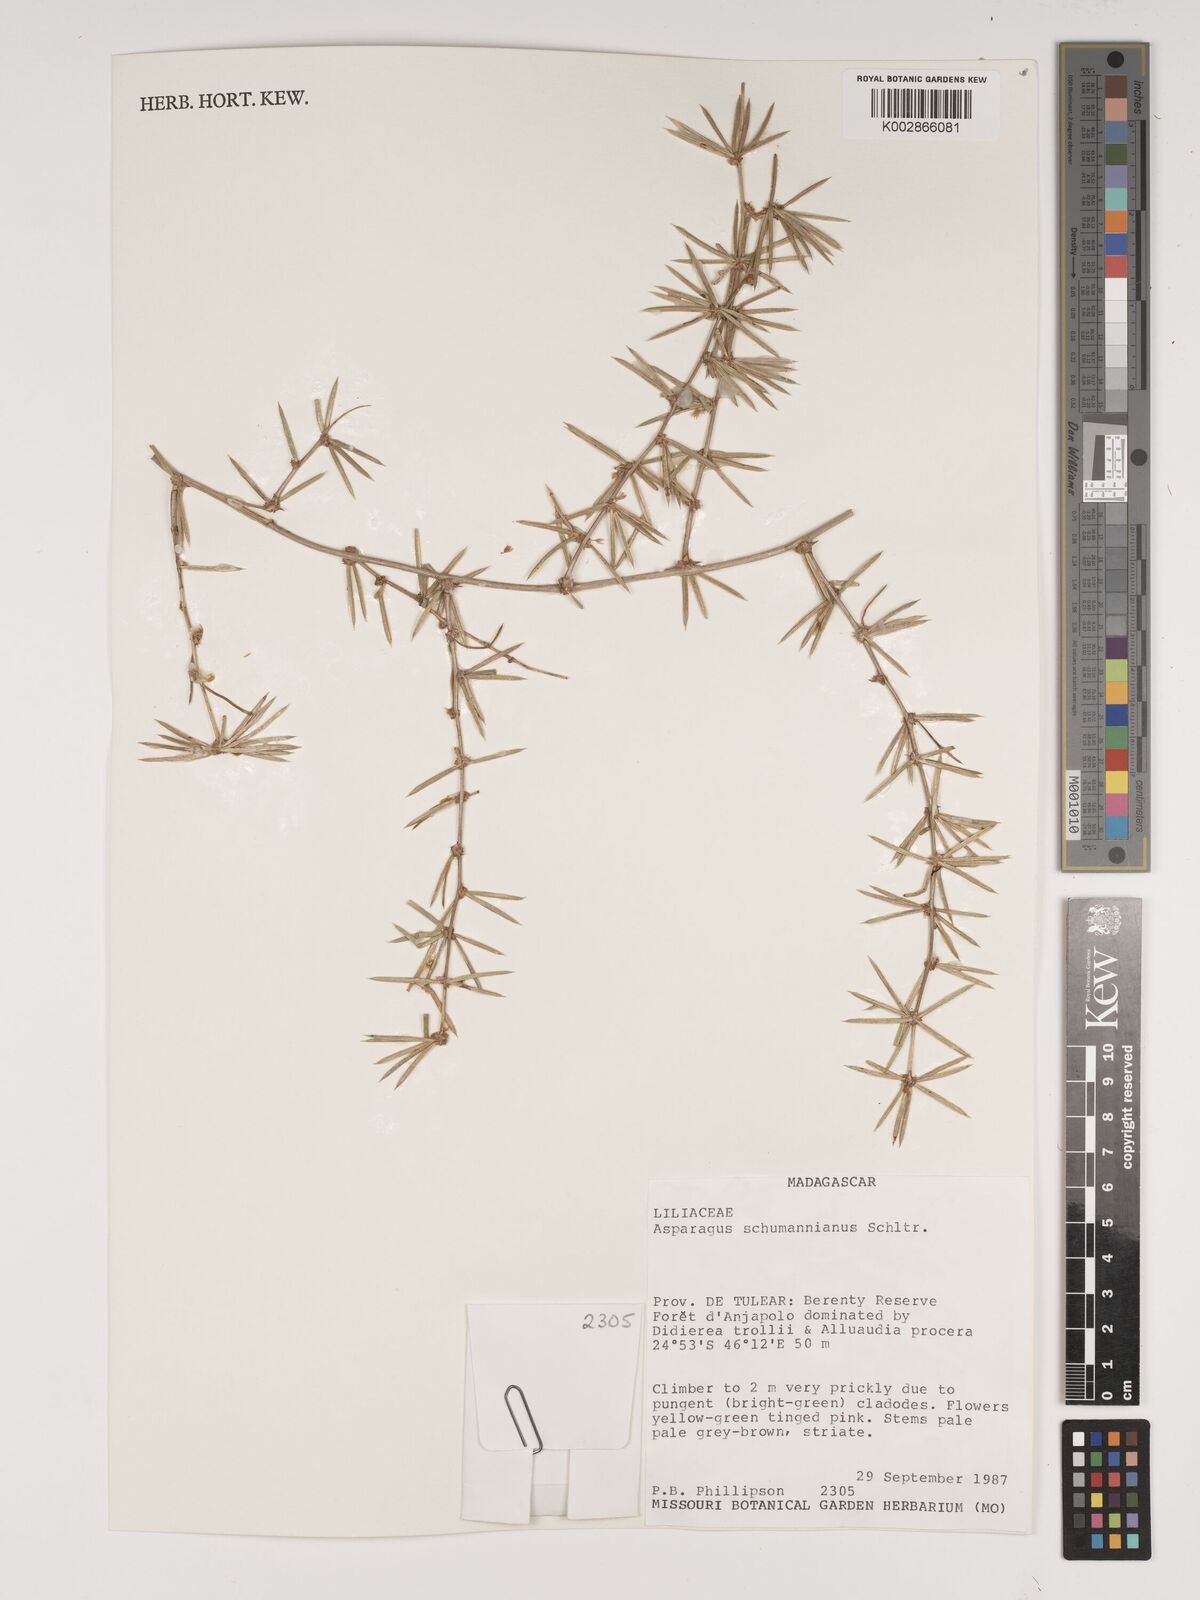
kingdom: Plantae
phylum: Tracheophyta
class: Liliopsida
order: Asparagales
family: Asparagaceae
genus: Asparagus
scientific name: Asparagus schumanianus
